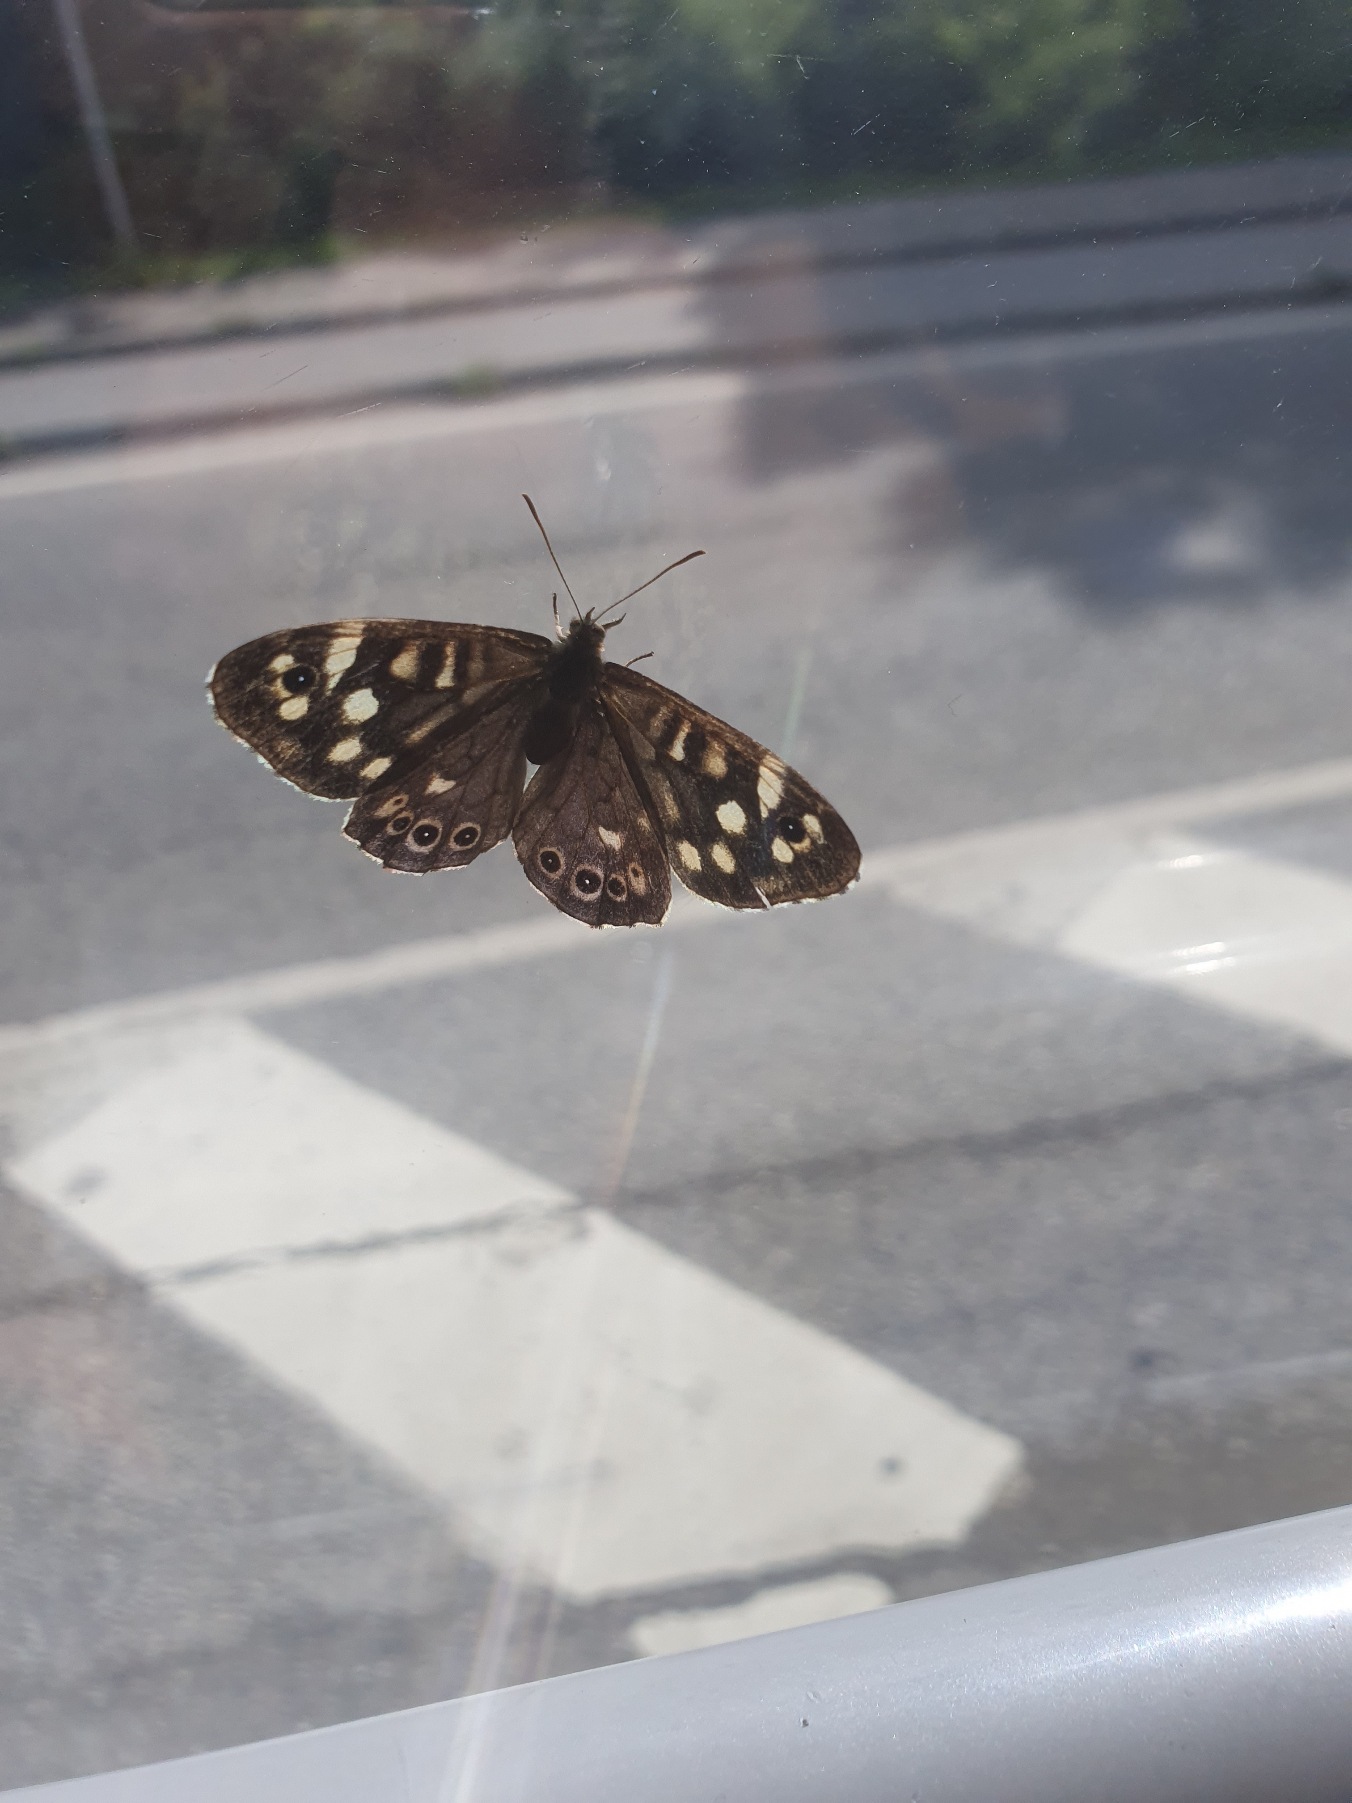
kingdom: Animalia
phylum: Arthropoda
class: Insecta
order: Lepidoptera
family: Nymphalidae
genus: Pararge
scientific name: Pararge aegeria
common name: Skovrandøje
